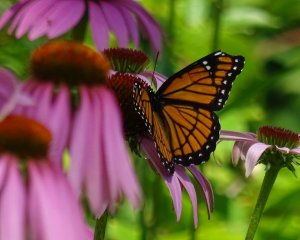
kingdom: Animalia
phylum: Arthropoda
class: Insecta
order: Lepidoptera
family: Nymphalidae
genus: Limenitis
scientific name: Limenitis archippus
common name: Viceroy
